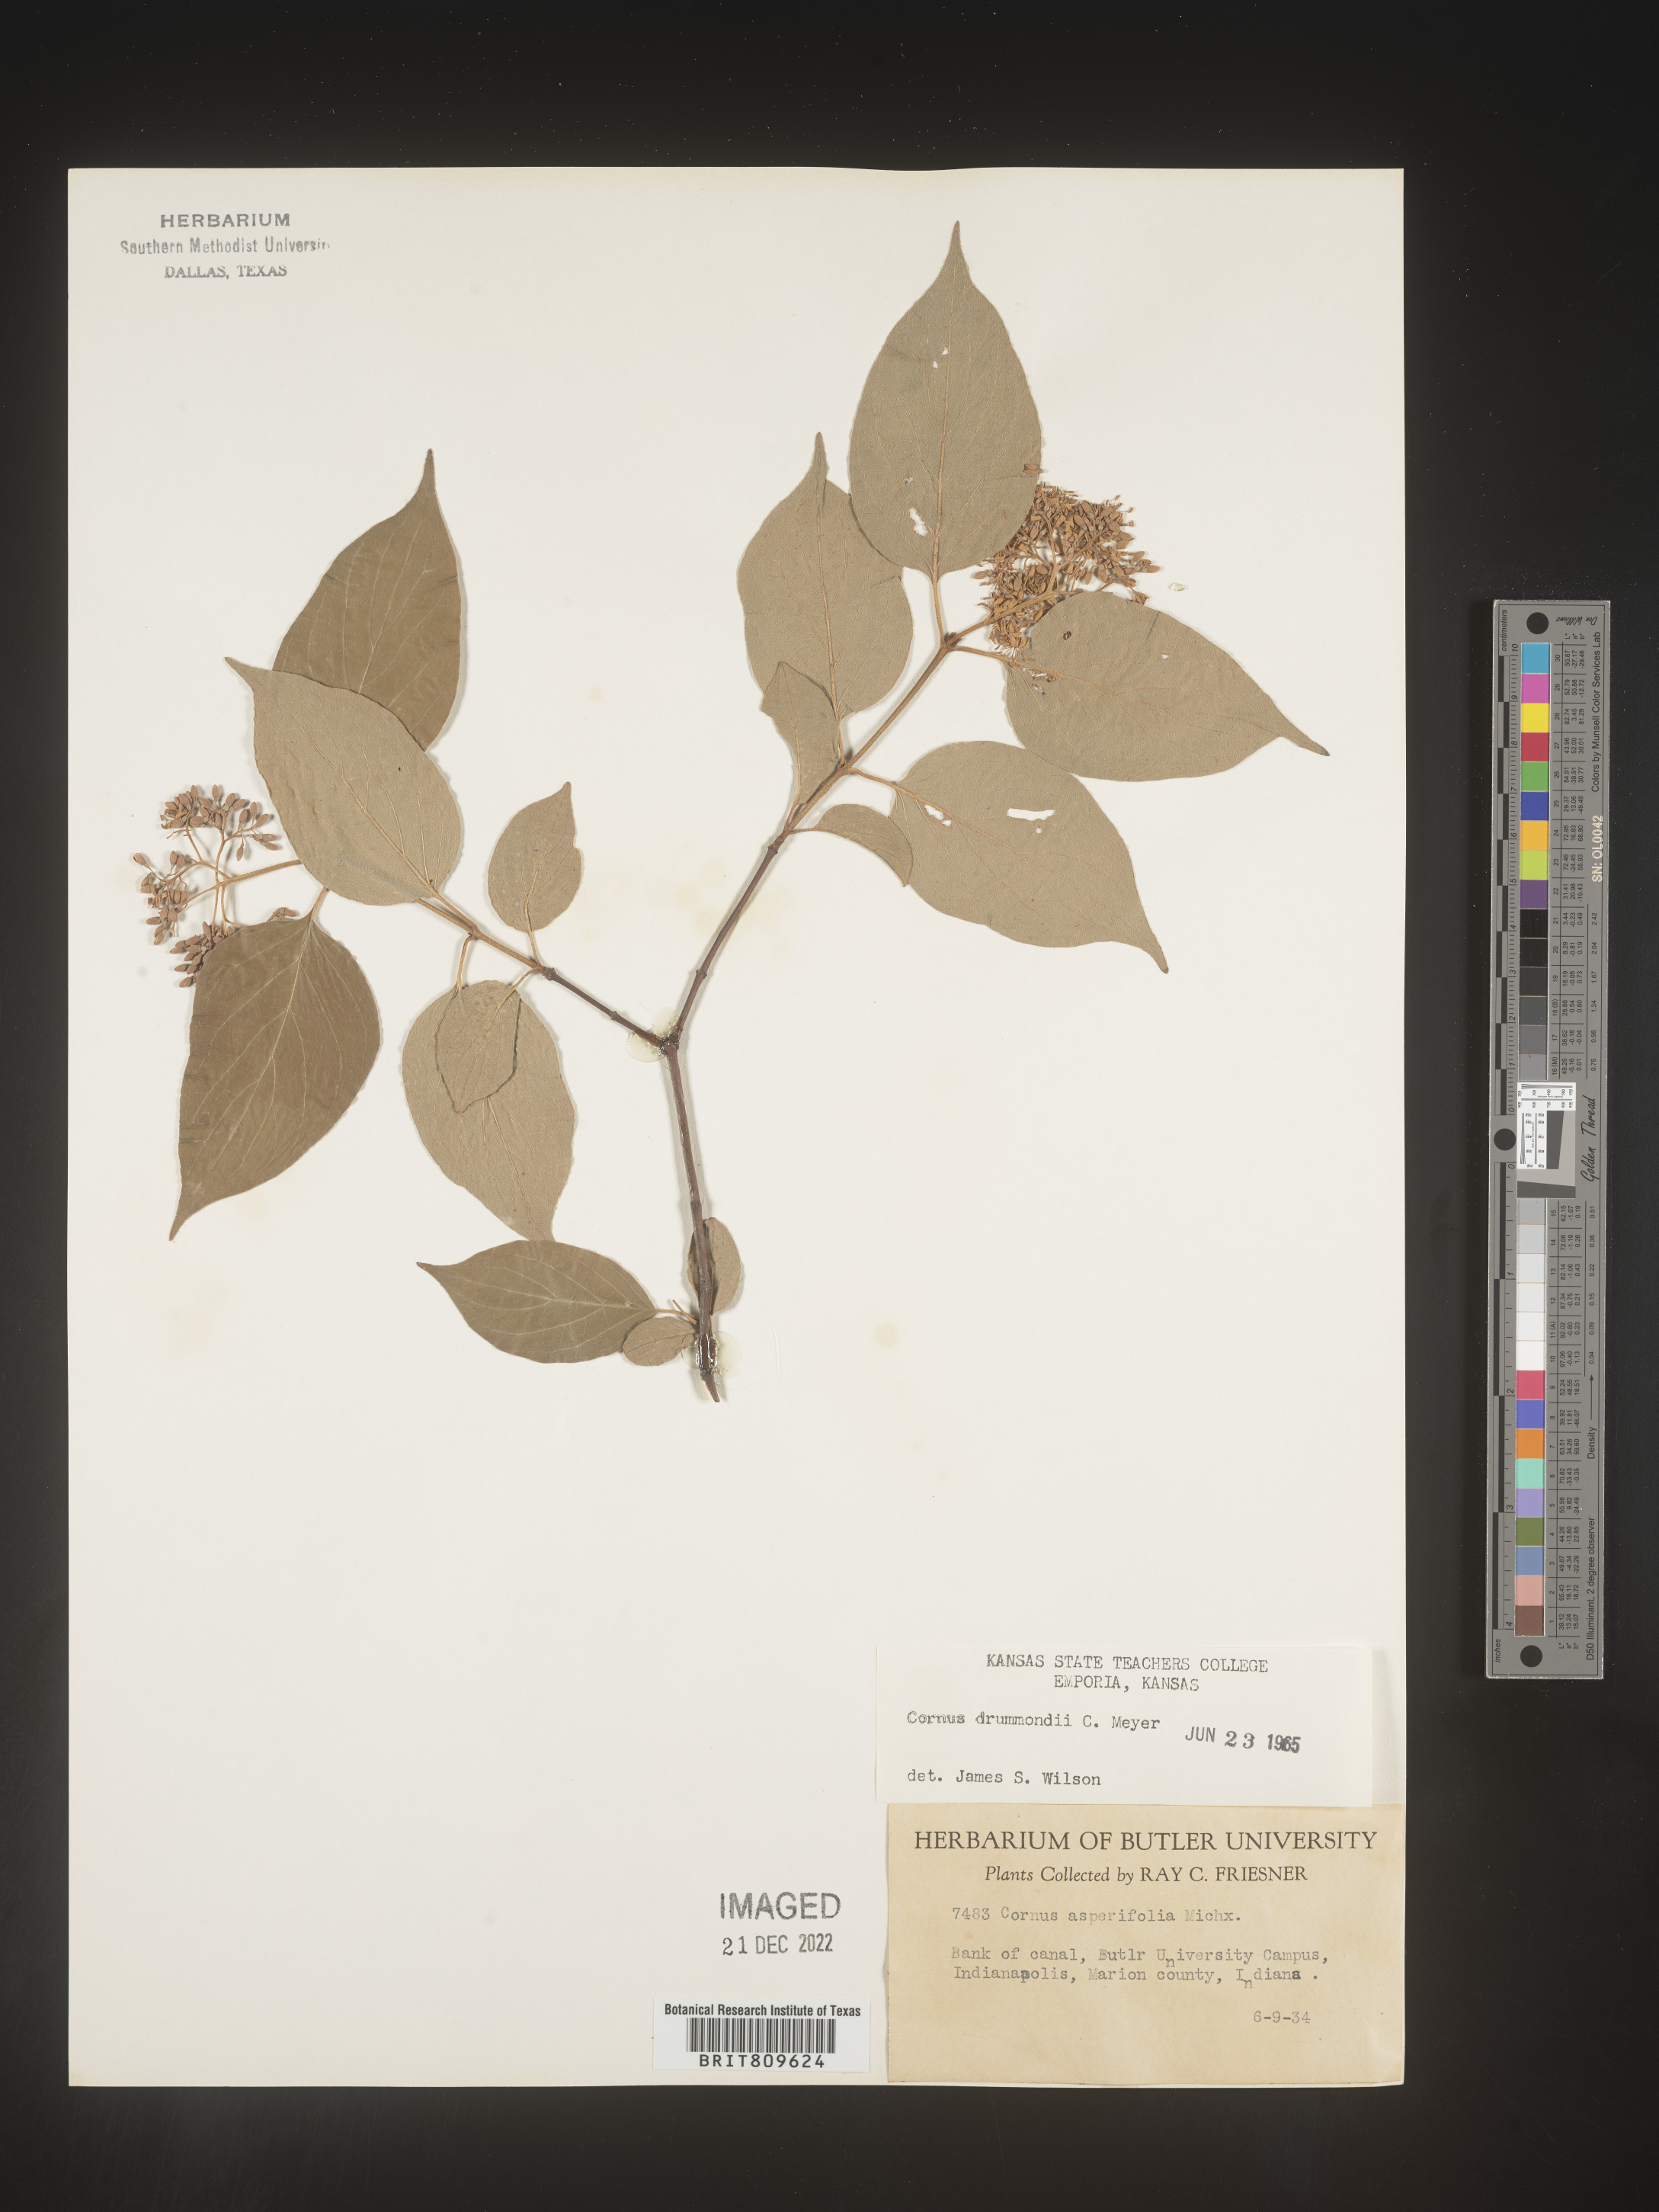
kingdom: Plantae
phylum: Tracheophyta
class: Magnoliopsida
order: Cornales
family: Cornaceae
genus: Cornus
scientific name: Cornus drummondii
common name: Rough-leaf dogwood
